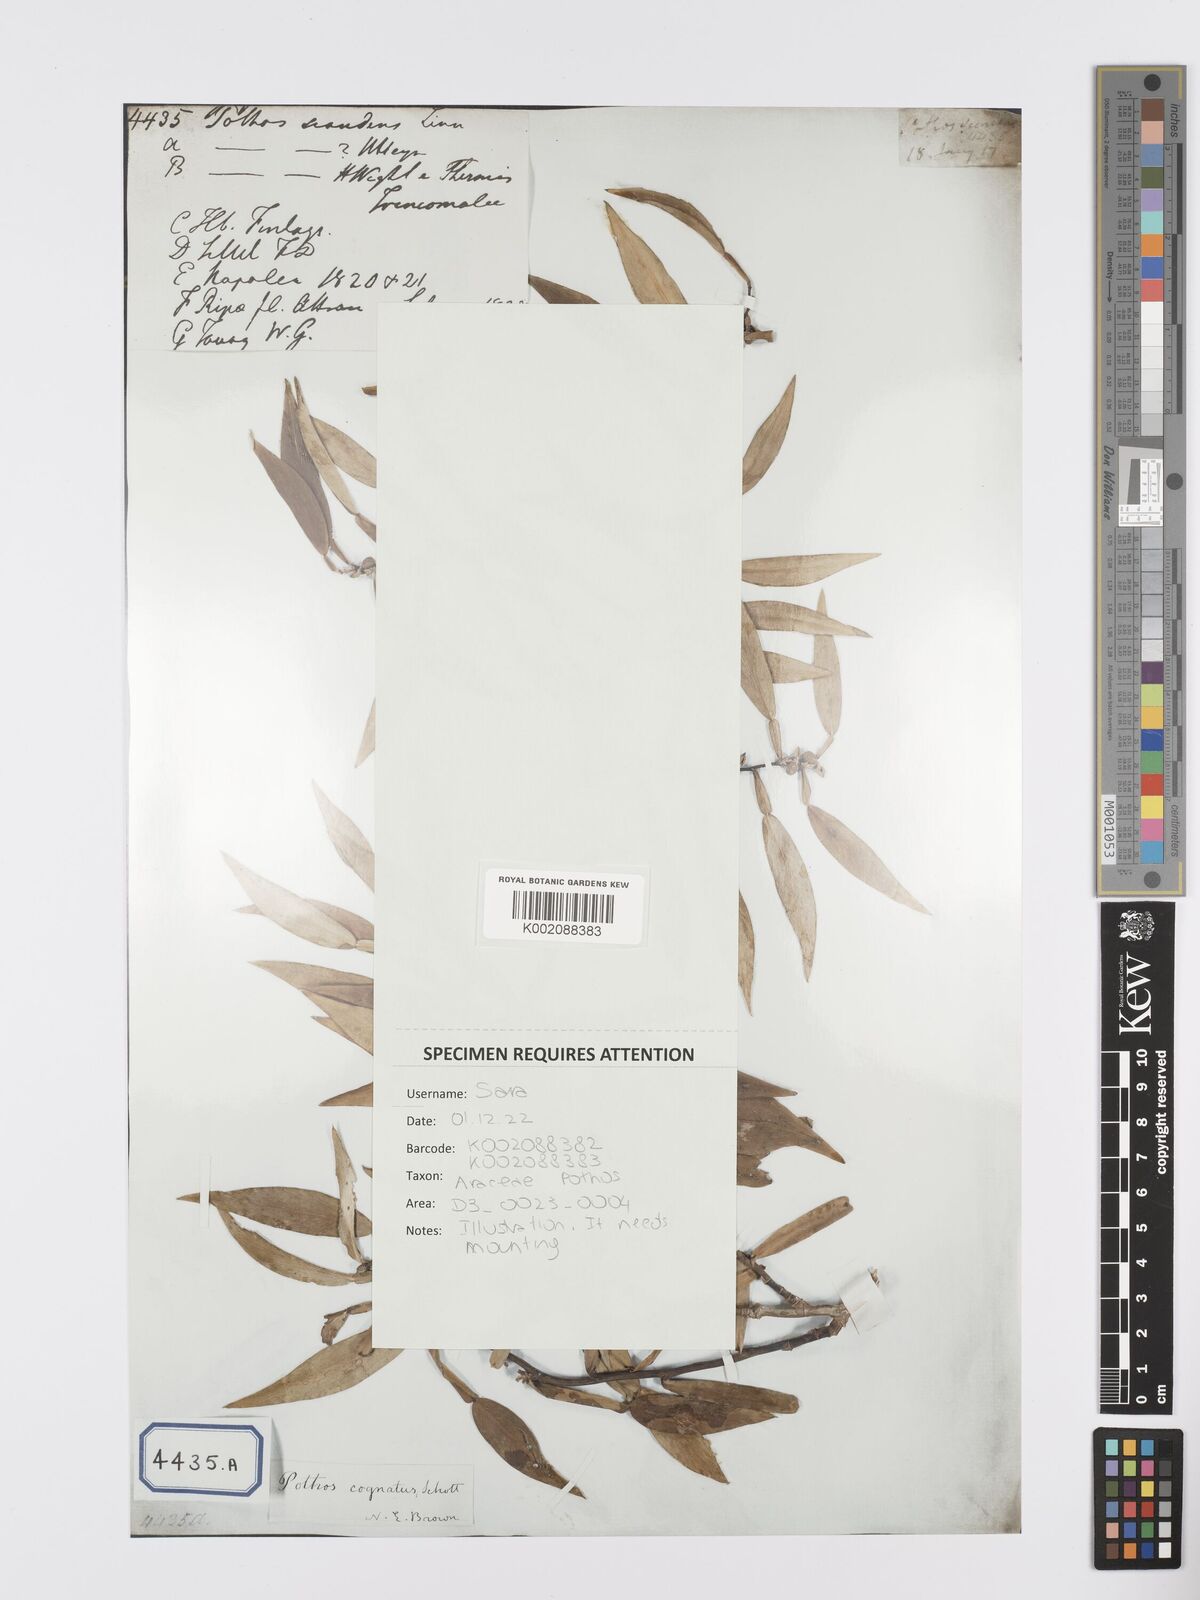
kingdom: Plantae
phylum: Tracheophyta
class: Liliopsida
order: Alismatales
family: Araceae
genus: Pothos
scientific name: Pothos scandens
